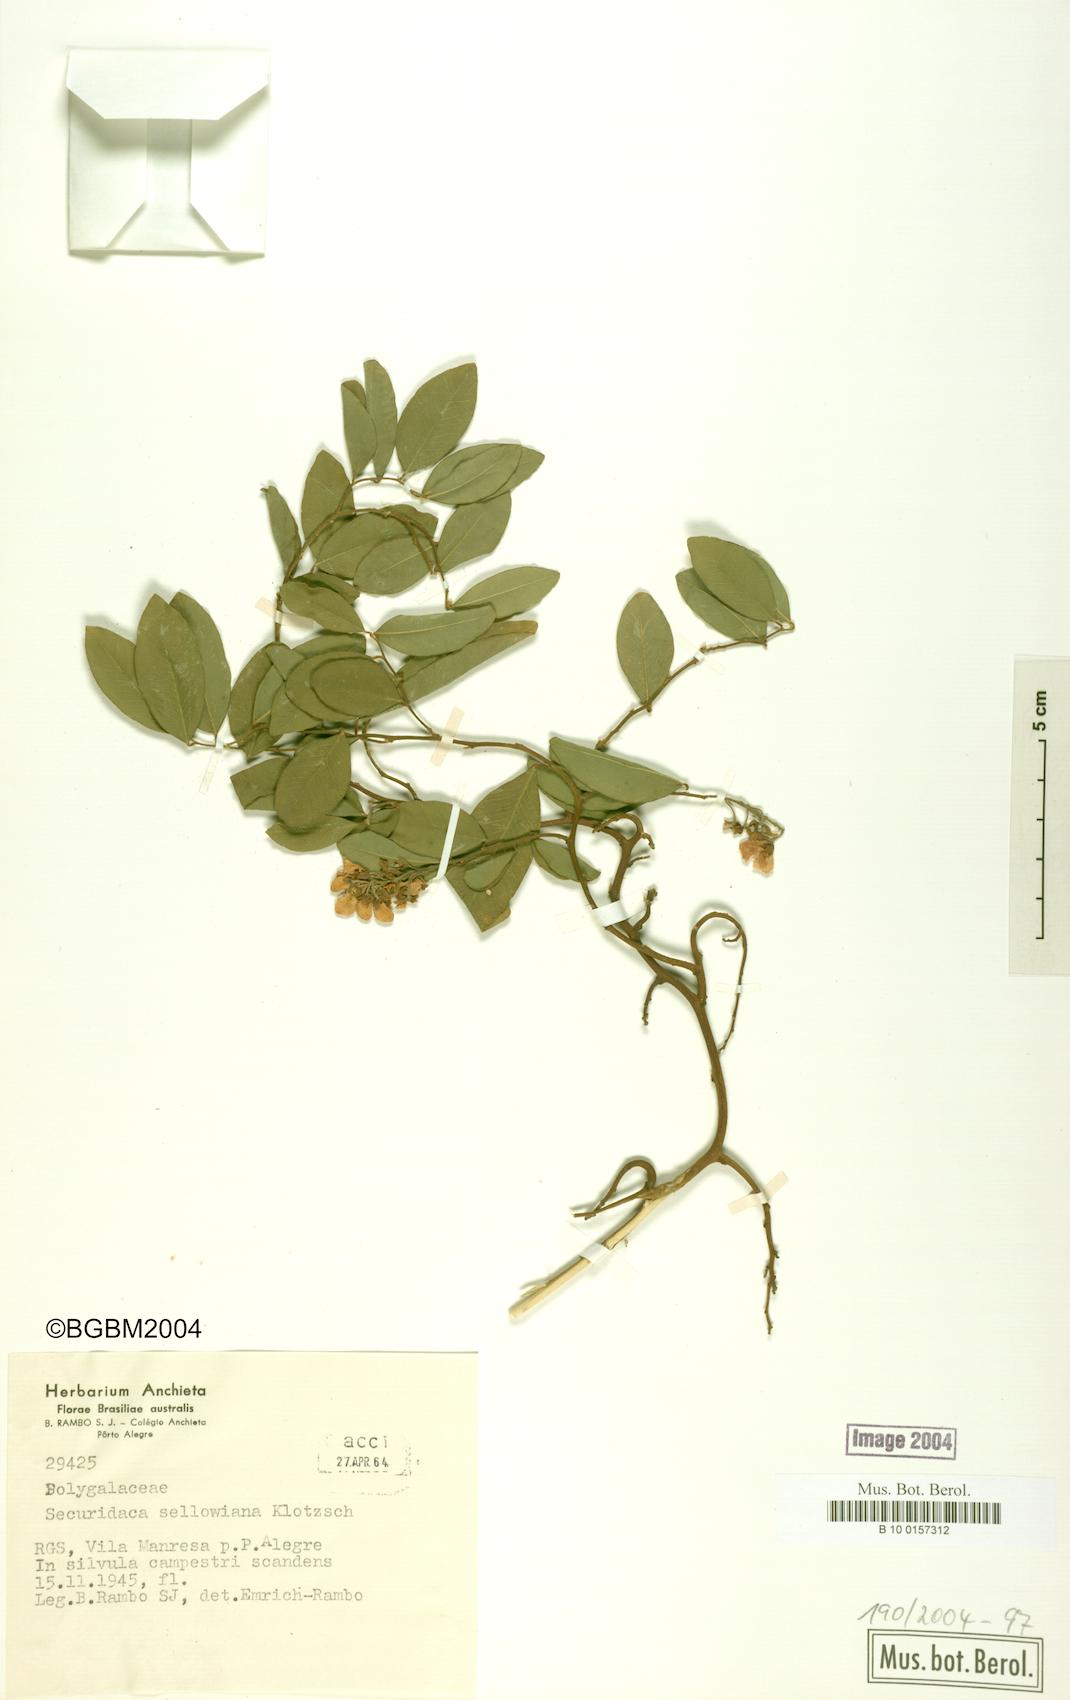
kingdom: Plantae
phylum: Tracheophyta
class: Magnoliopsida
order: Fabales
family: Polygalaceae
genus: Securidaca
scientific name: Securidaca lanceolata
